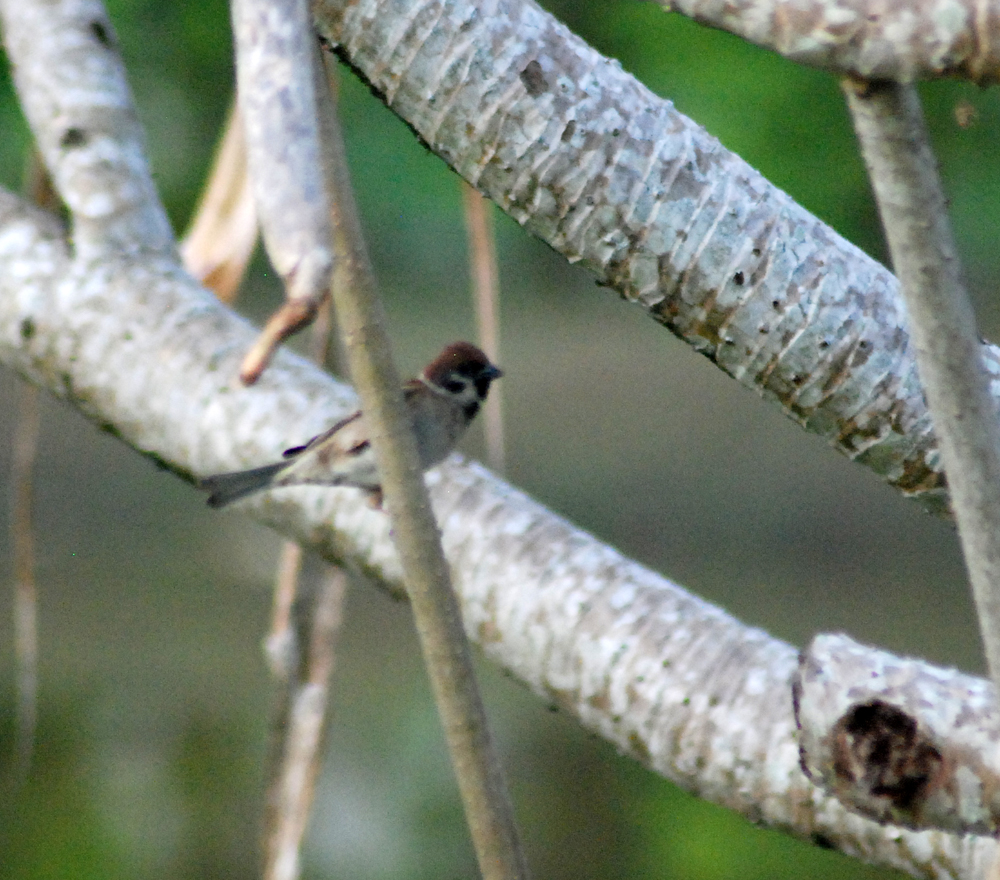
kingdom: Animalia
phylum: Chordata
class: Aves
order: Passeriformes
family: Passeridae
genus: Passer
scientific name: Passer montanus
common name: Eurasian tree sparrow
